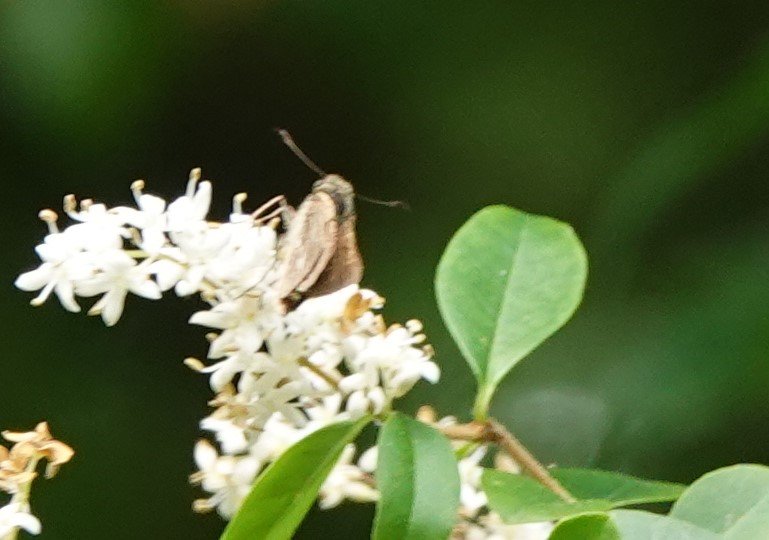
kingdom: Animalia
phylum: Arthropoda
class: Insecta
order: Lepidoptera
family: Hesperiidae
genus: Panoquina
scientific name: Panoquina panoquin
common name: Salt Marsh Skipper
